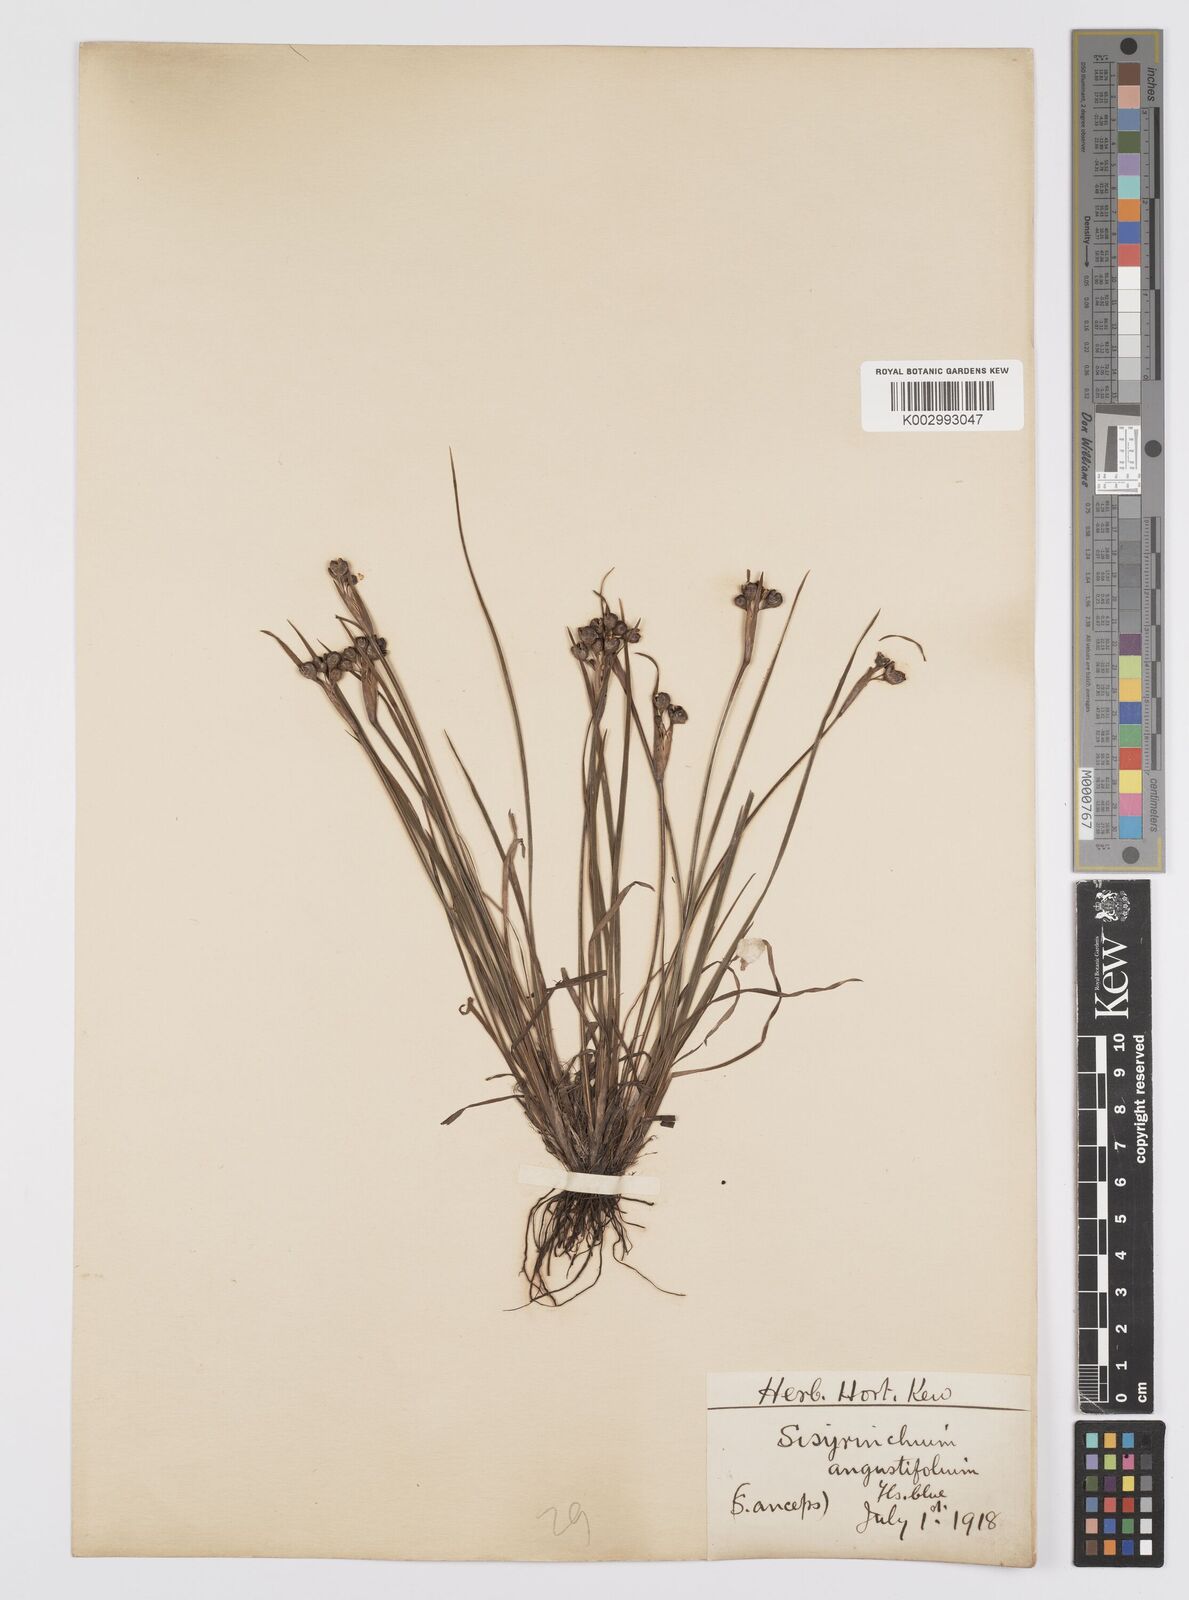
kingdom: Plantae
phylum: Tracheophyta
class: Liliopsida
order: Asparagales
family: Iridaceae
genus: Sisyrinchium
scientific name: Sisyrinchium angustifolium
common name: Narrow-leaf blue-eyed-grass
